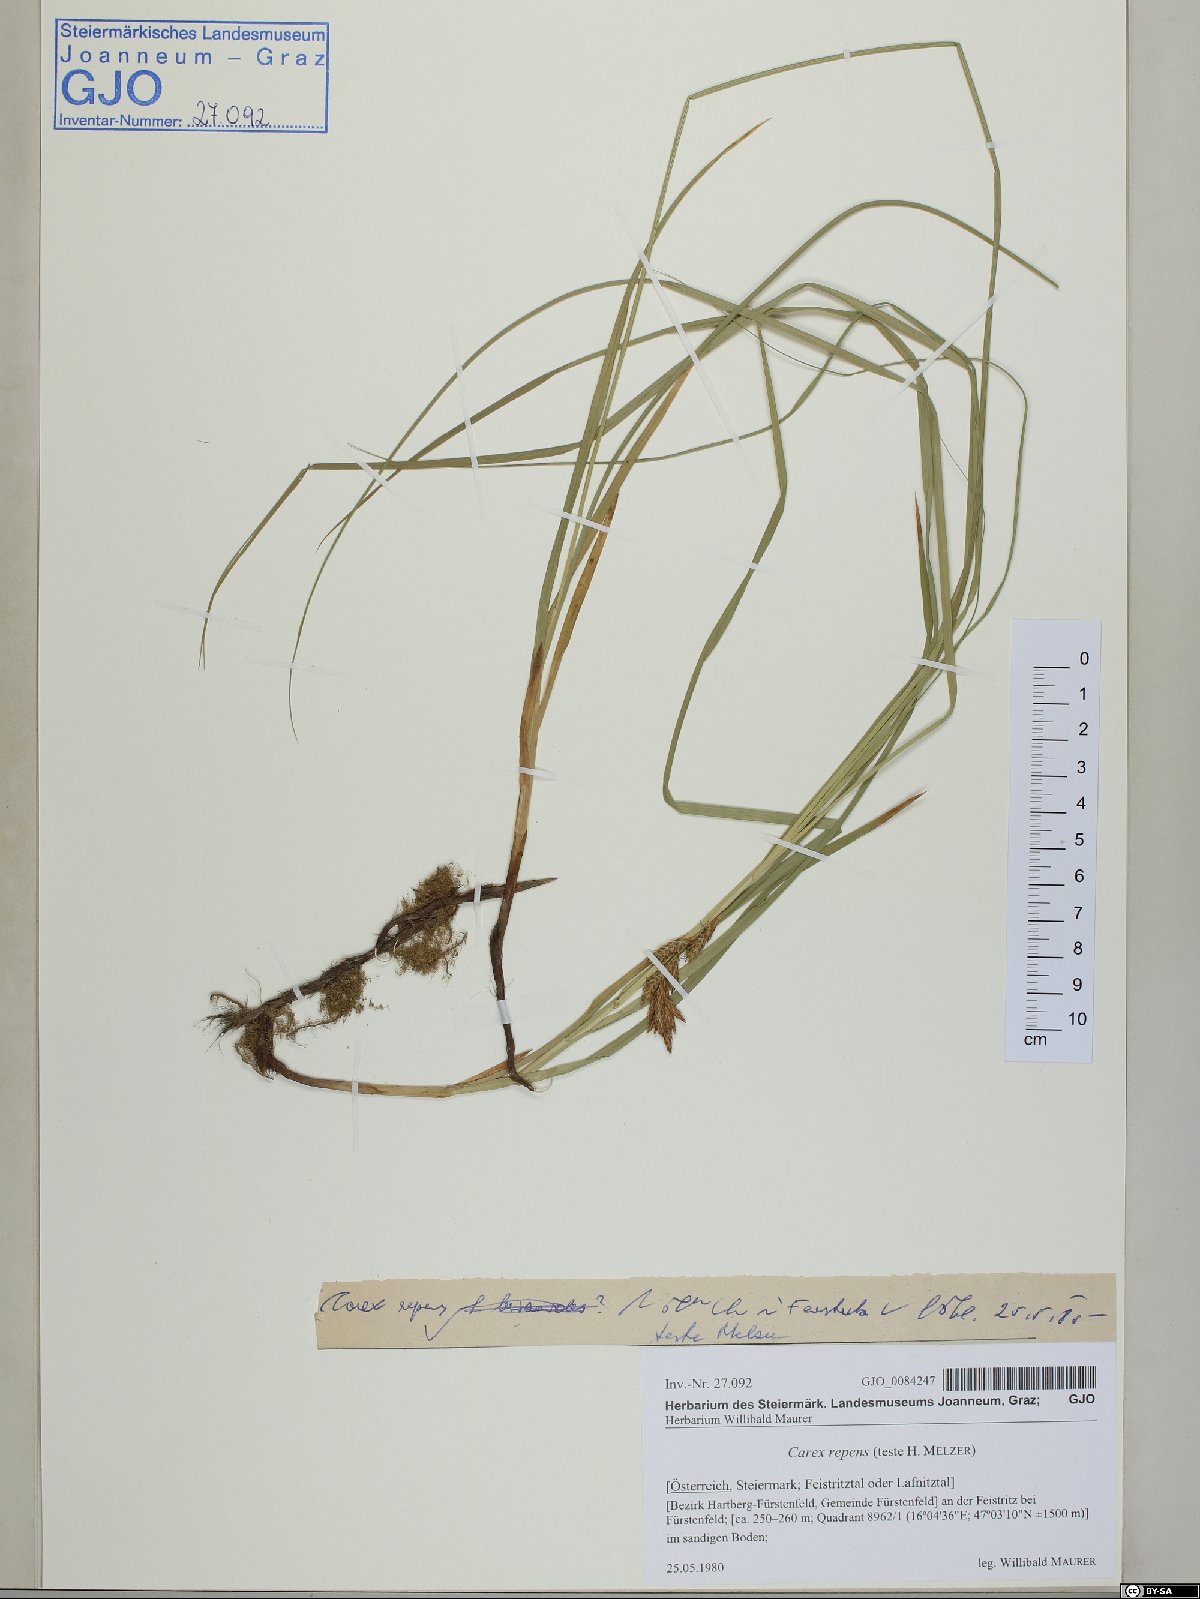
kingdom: Plantae
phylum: Tracheophyta
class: Liliopsida
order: Poales
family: Cyperaceae
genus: Carex
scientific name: Carex repens
